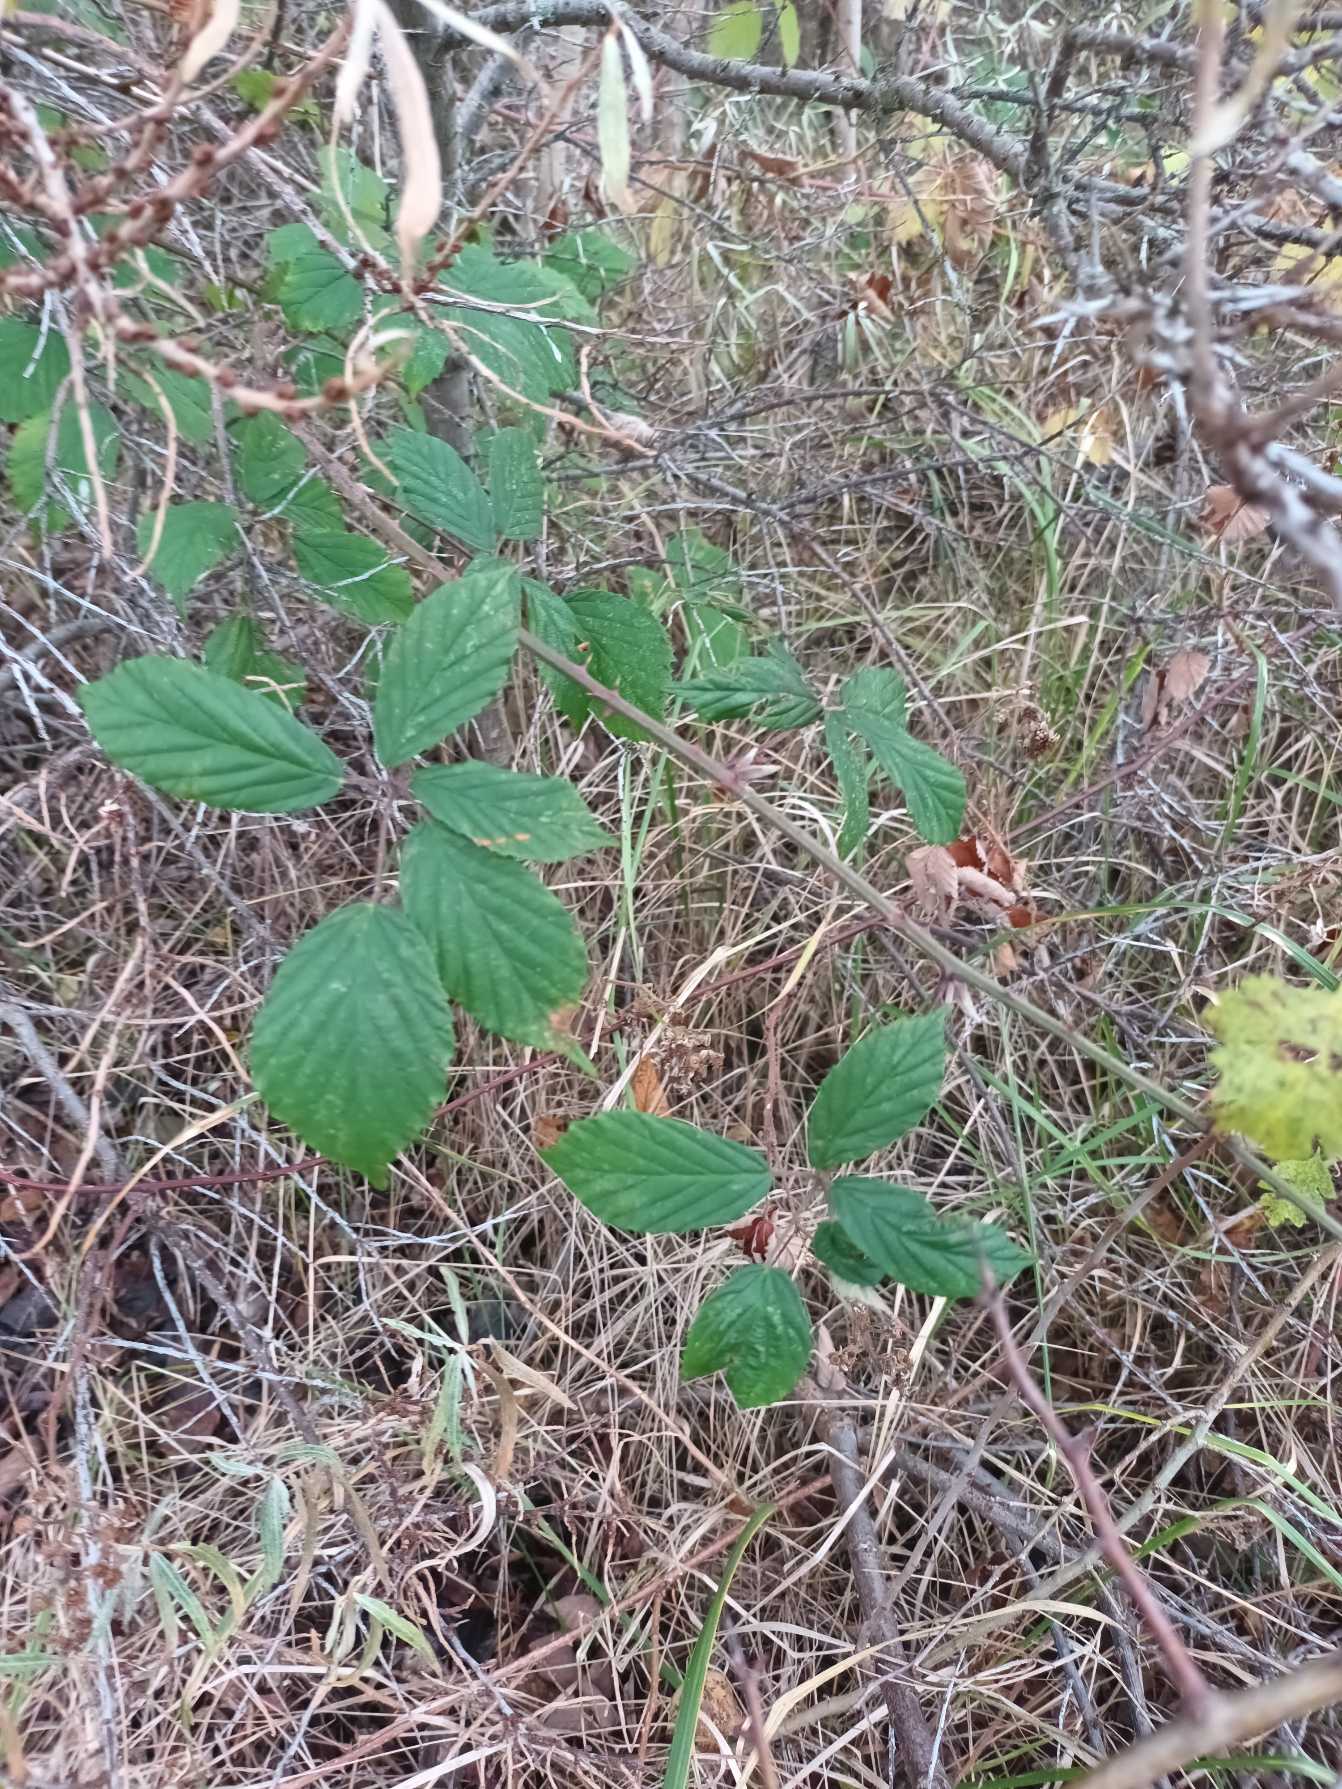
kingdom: Plantae
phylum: Tracheophyta
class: Magnoliopsida
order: Rosales
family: Rosaceae
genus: Rubus
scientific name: Rubus radula
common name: Rasperu brombær
